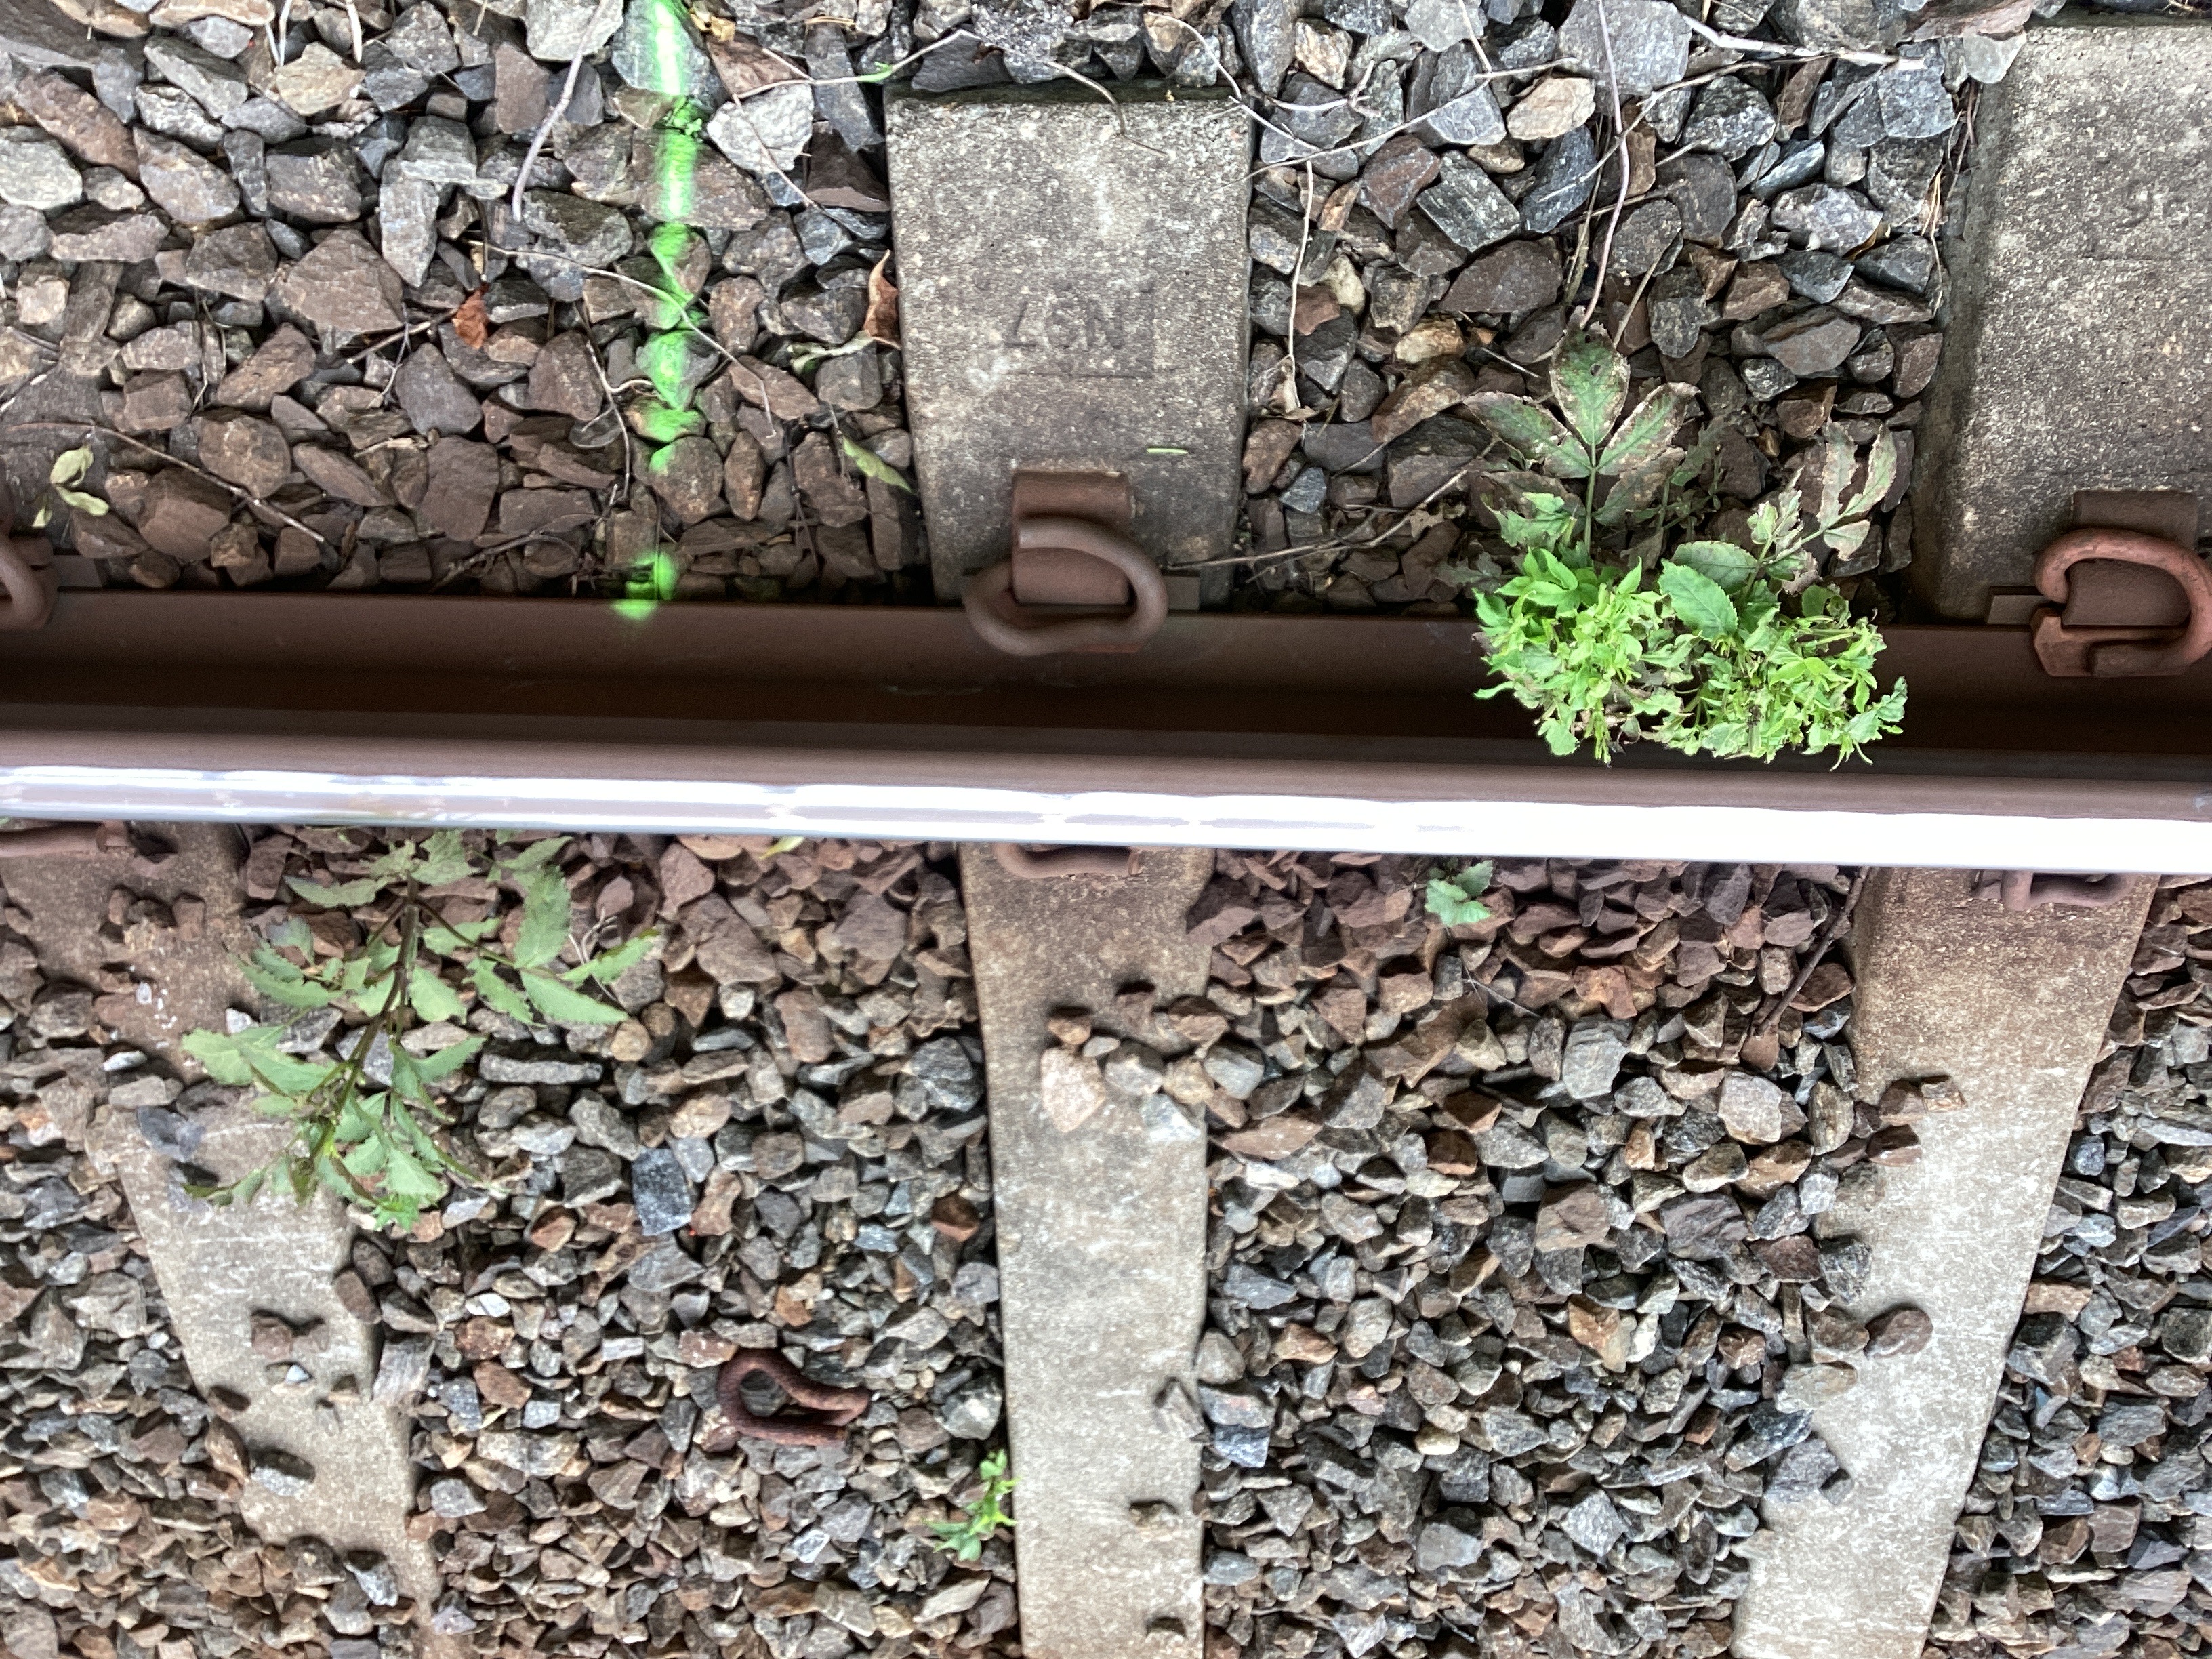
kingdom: Plantae
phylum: Tracheophyta
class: Magnoliopsida
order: Dipsacales
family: Viburnaceae
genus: Sambucus
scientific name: Sambucus racemosa
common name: rødhyll
